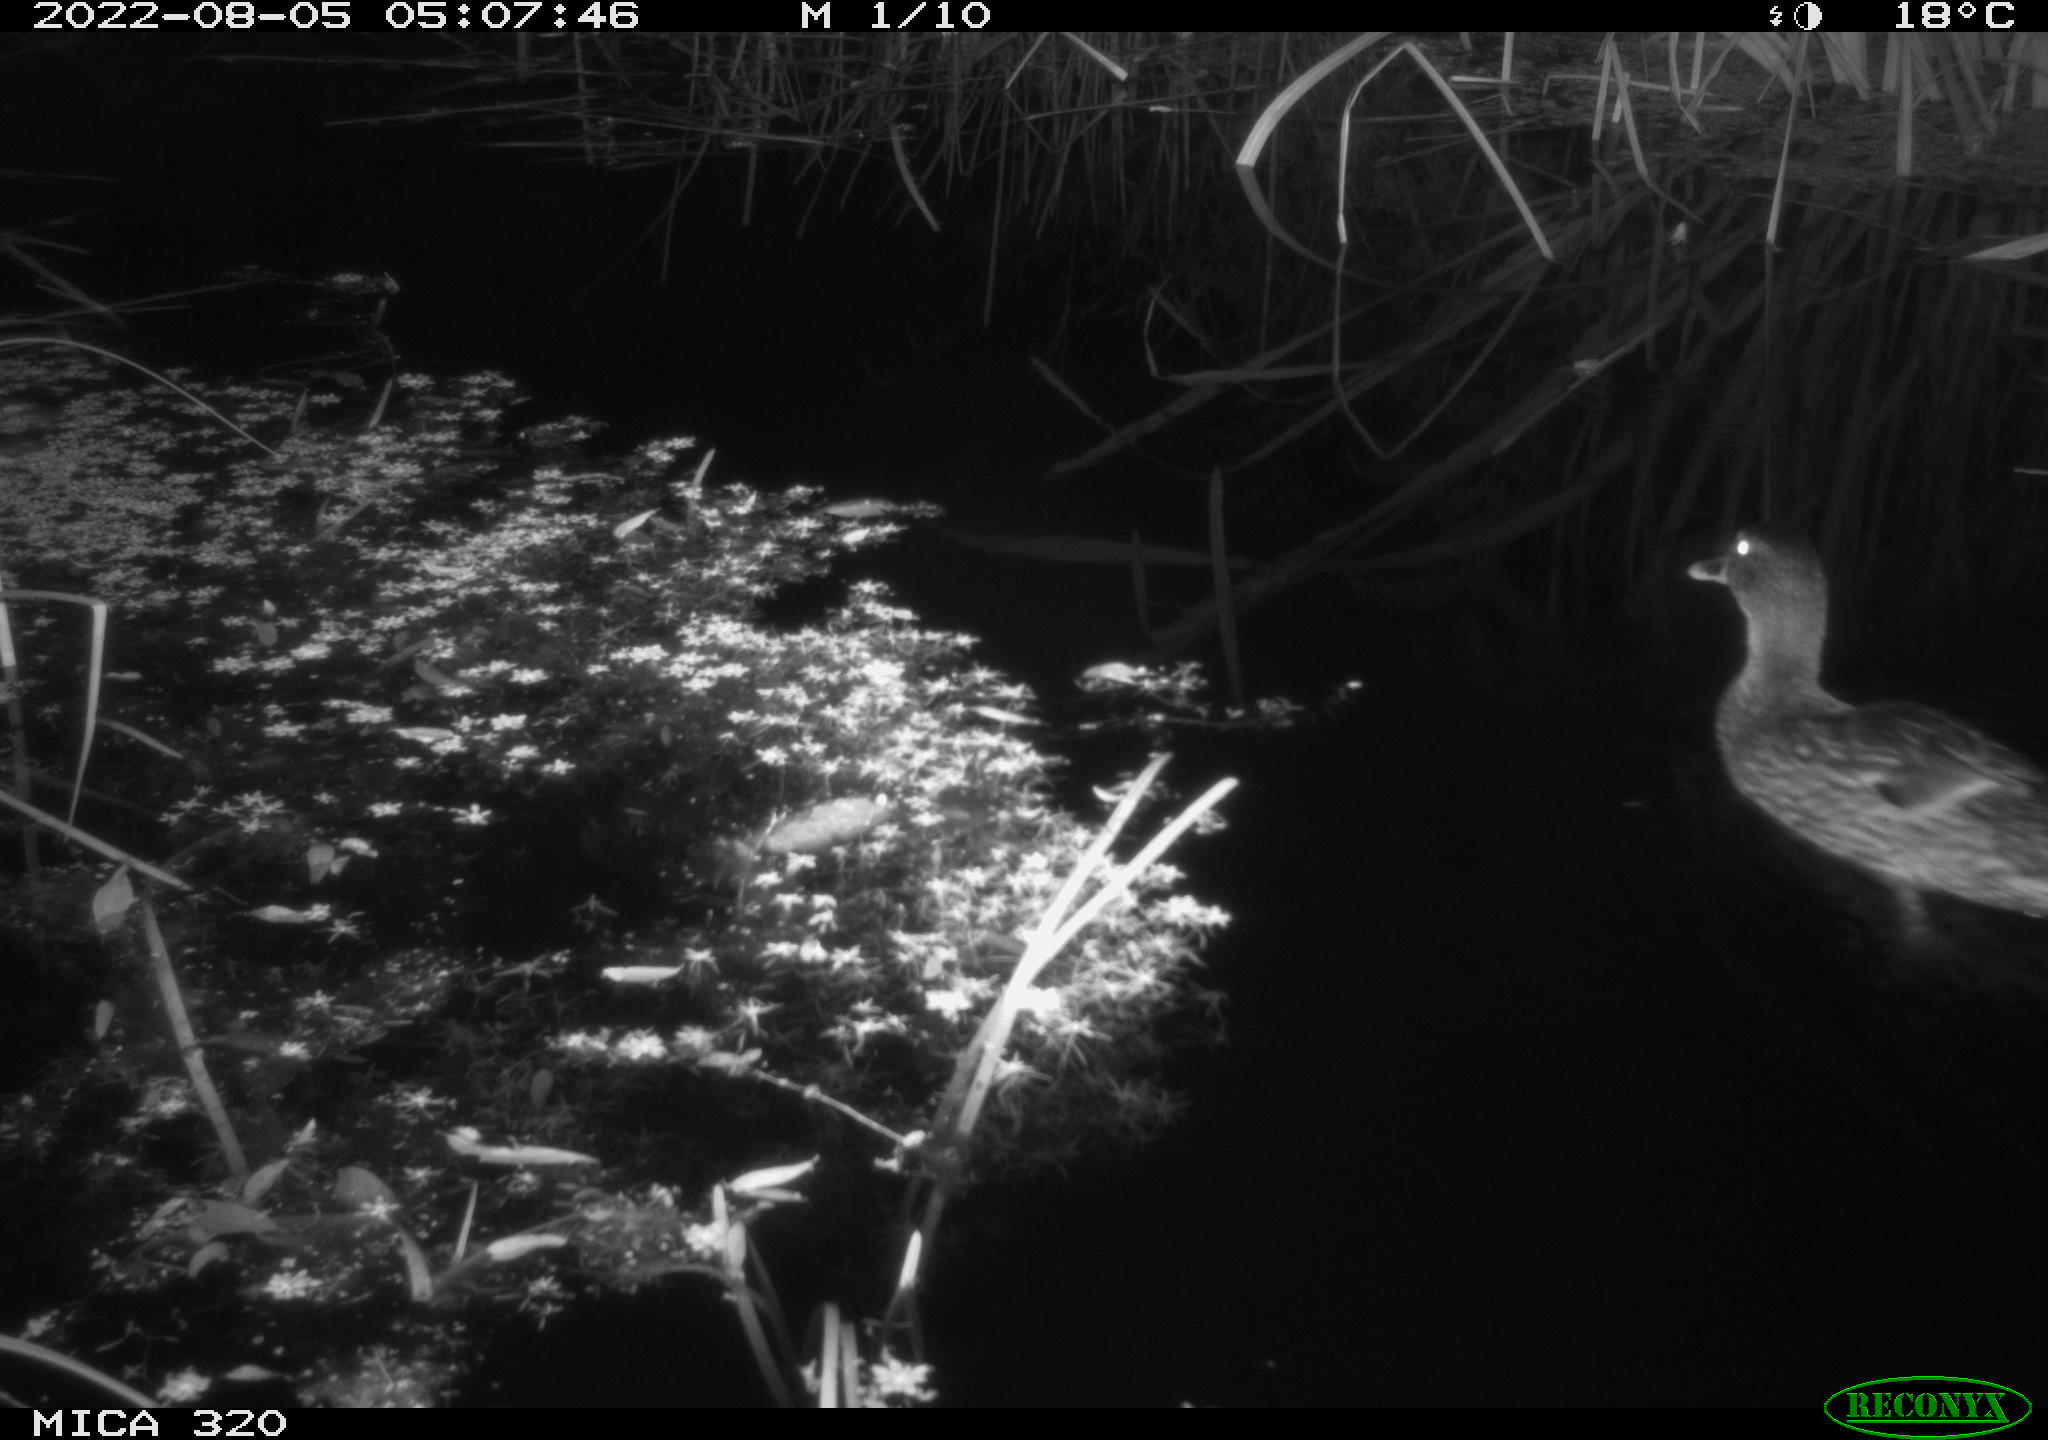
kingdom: Animalia
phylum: Chordata
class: Aves
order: Anseriformes
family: Anatidae
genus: Anas
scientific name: Anas platyrhynchos
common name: Mallard
